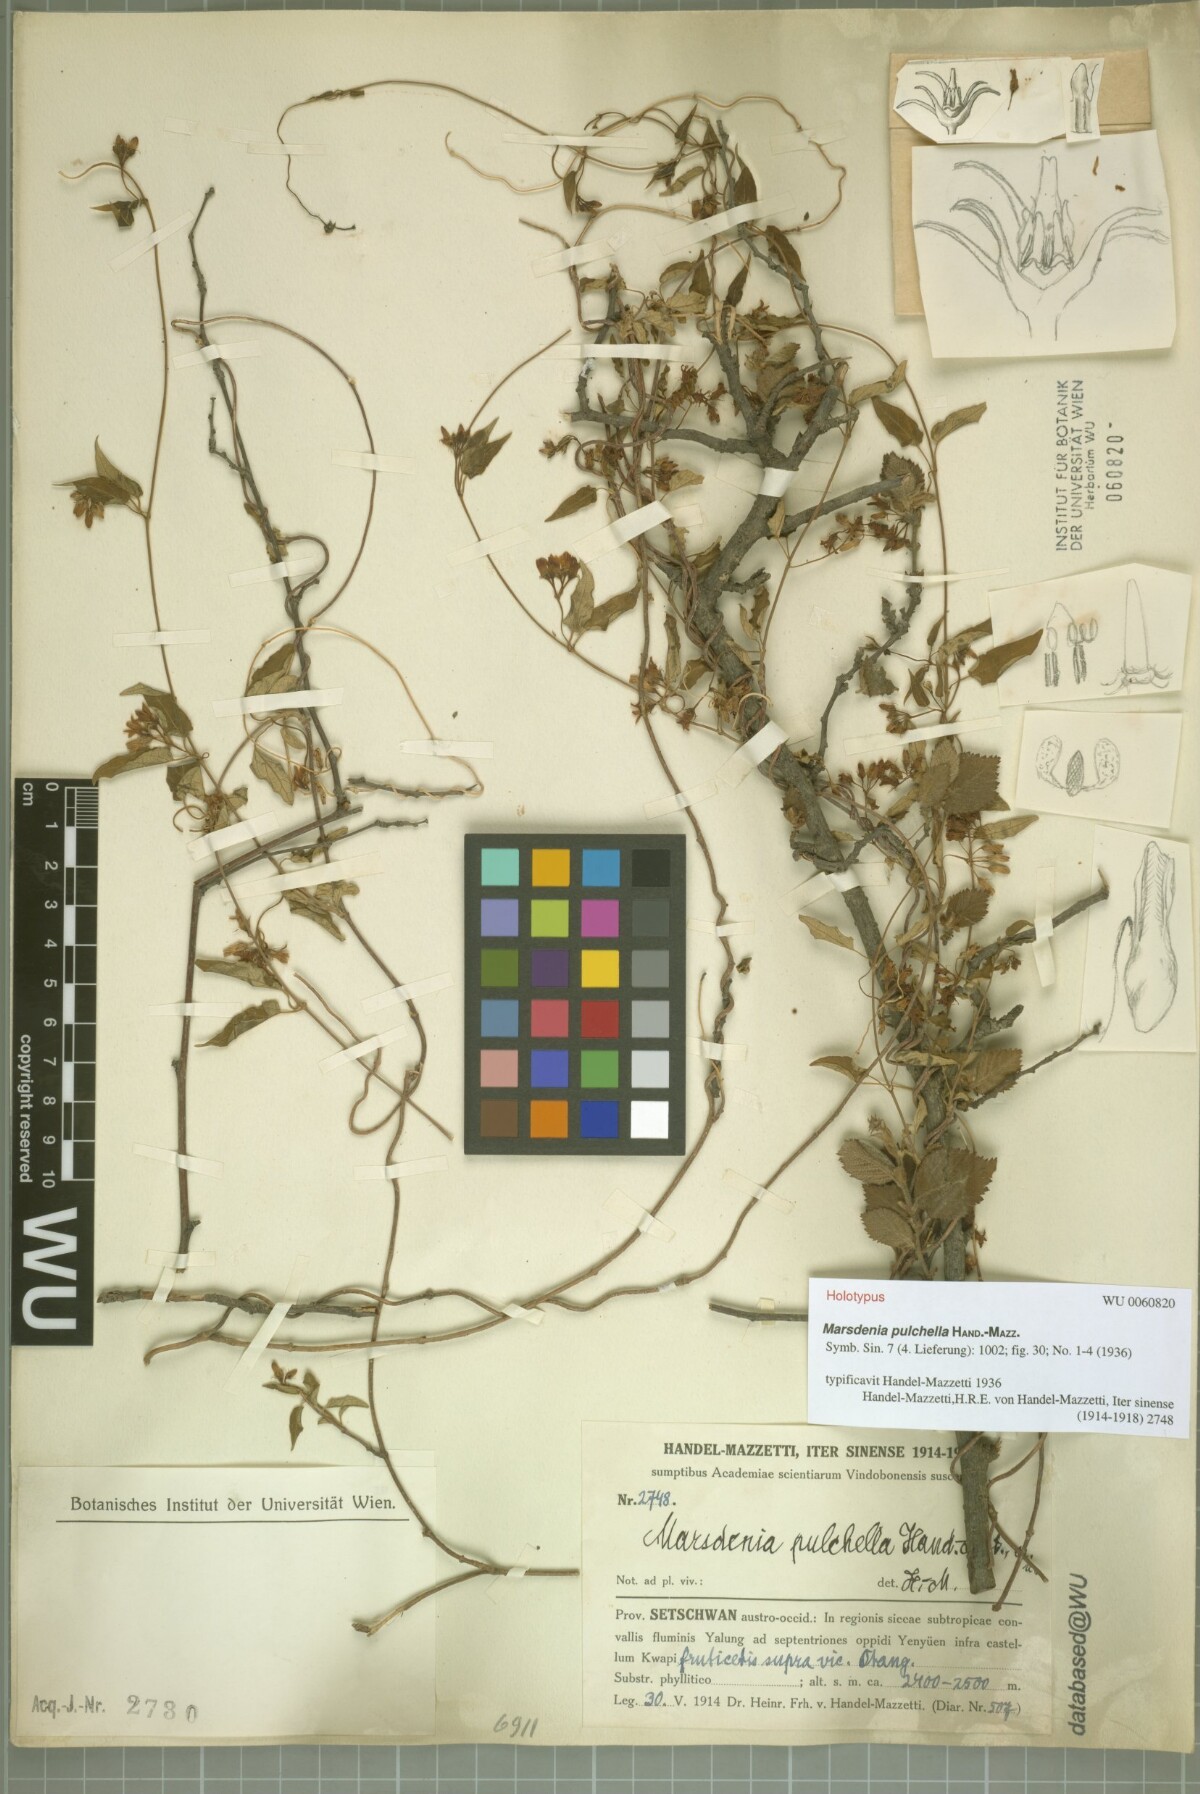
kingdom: Plantae
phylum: Tracheophyta
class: Magnoliopsida
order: Gentianales
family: Apocynaceae
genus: Marsdenia
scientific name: Marsdenia pulchella
